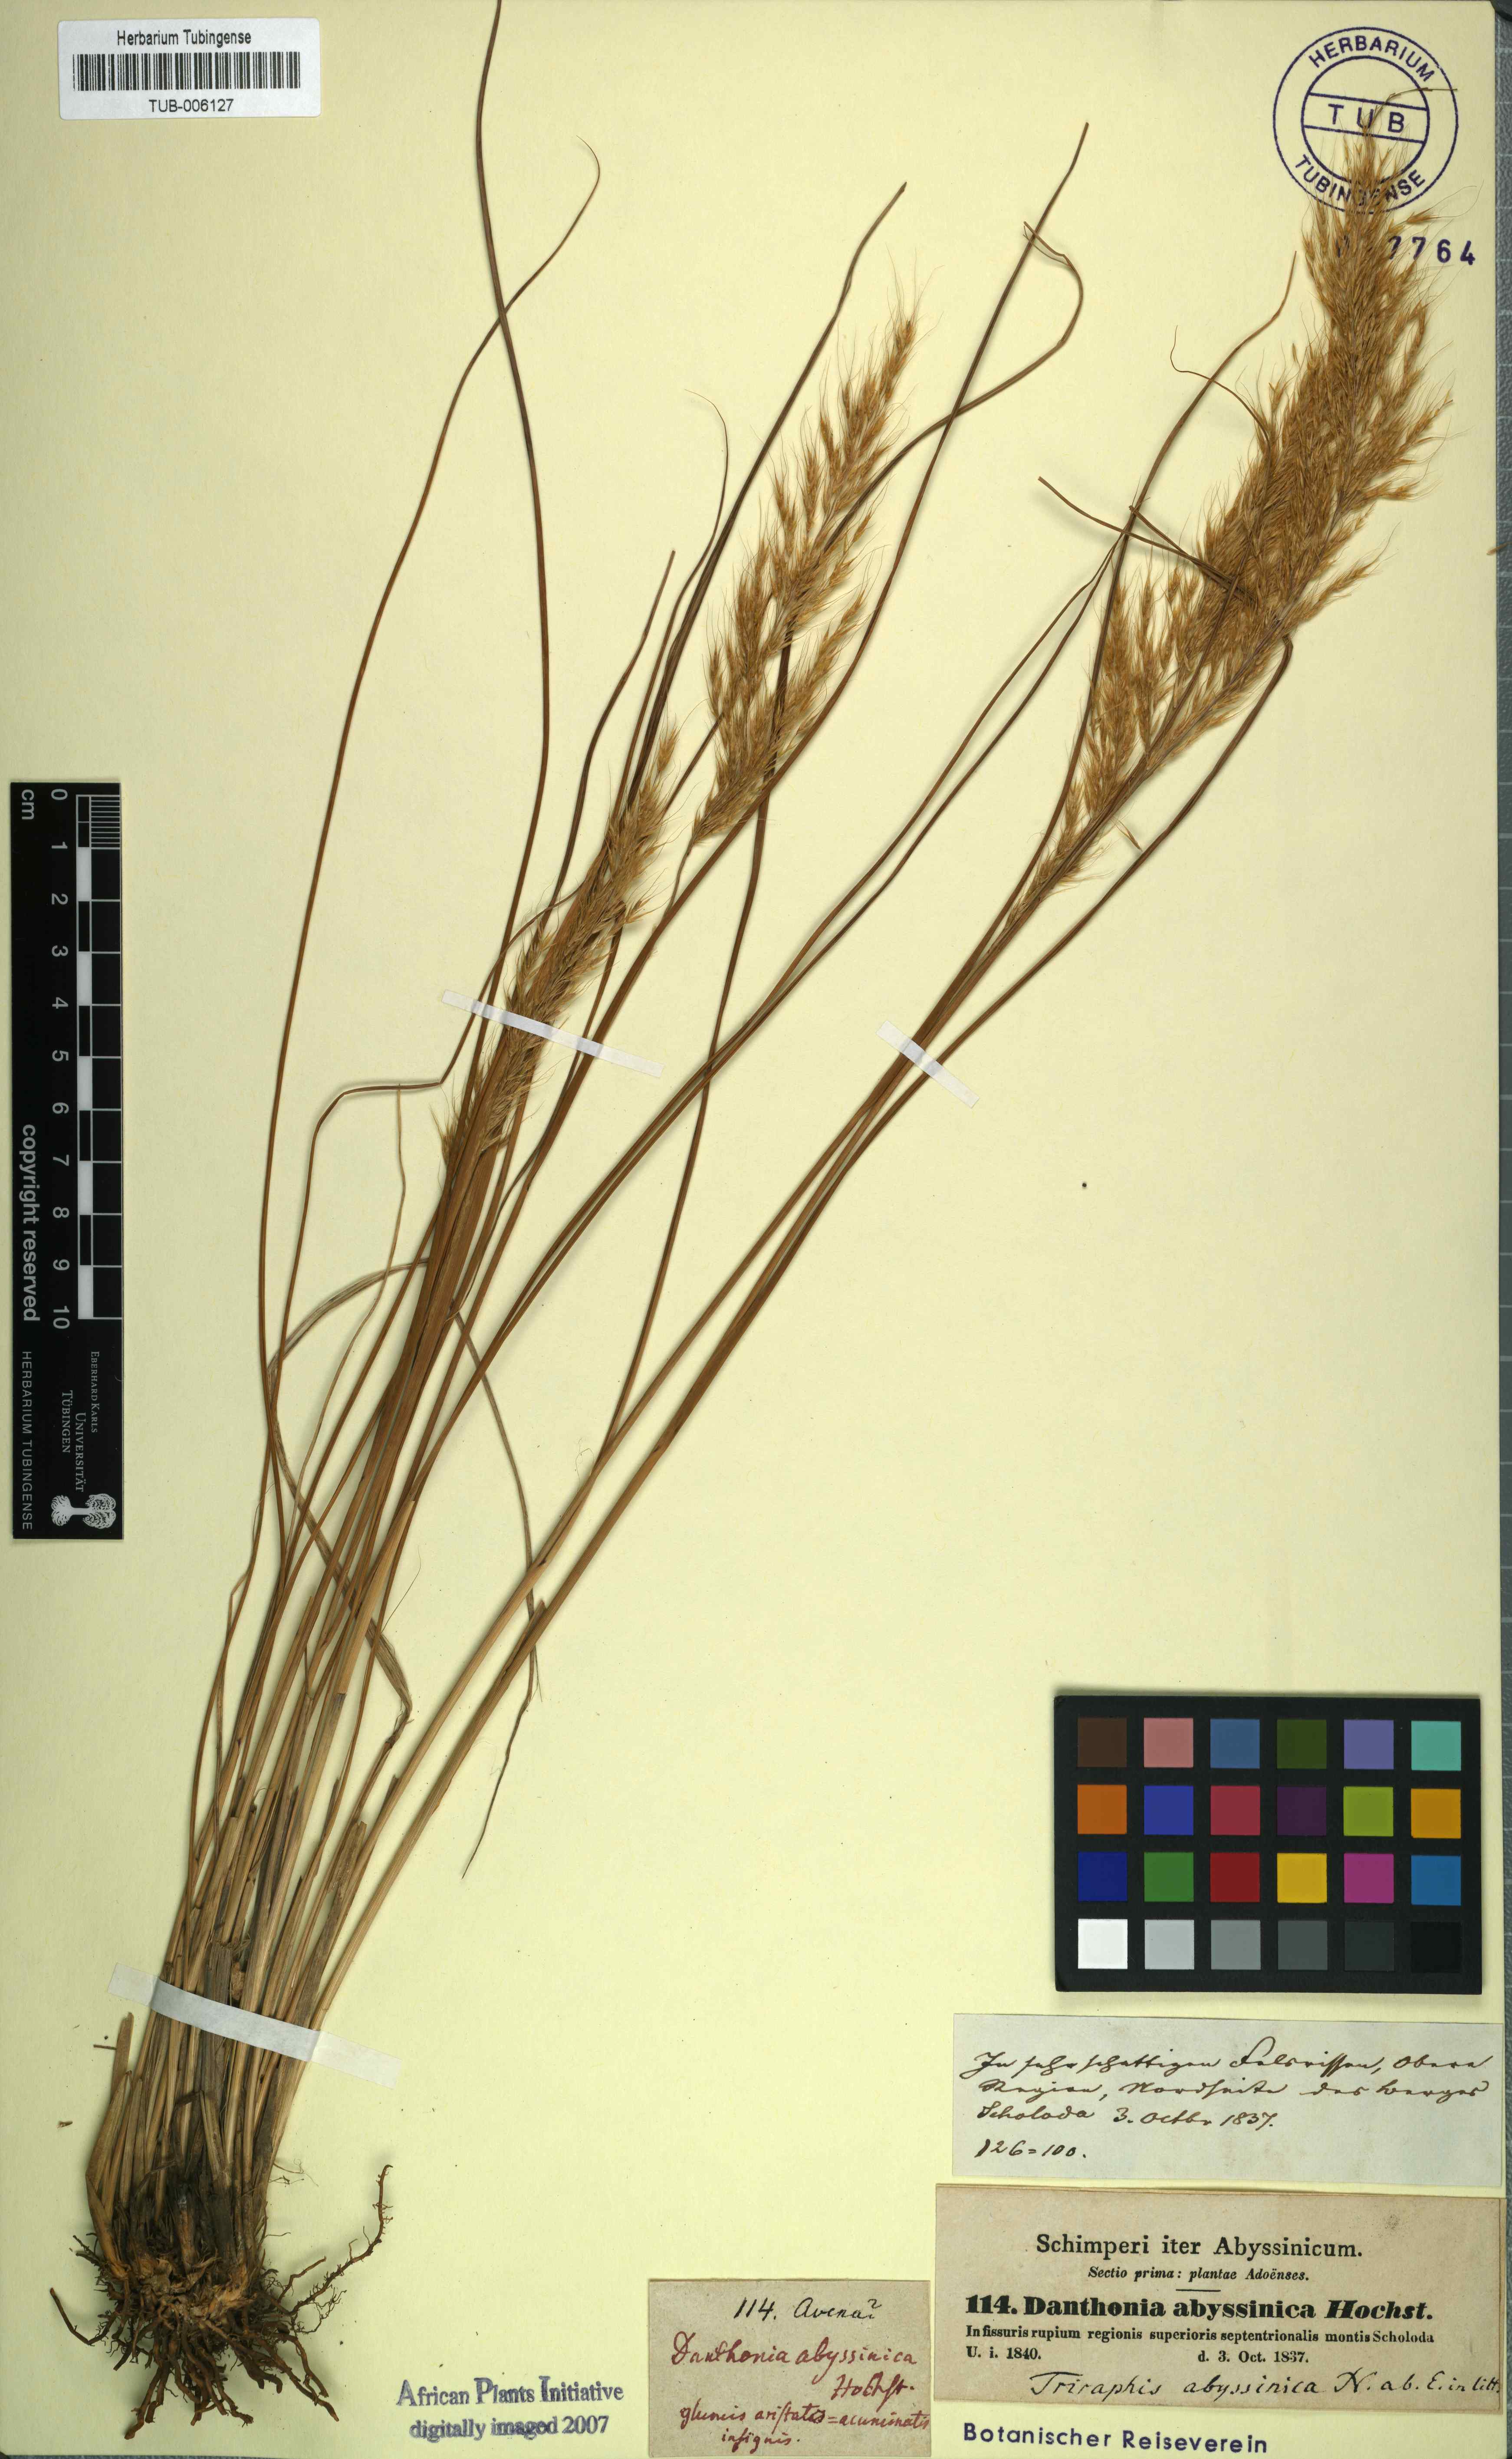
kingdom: Plantae
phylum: Tracheophyta
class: Liliopsida
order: Poales
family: Poaceae
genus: Crinipes
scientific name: Crinipes abyssinicus
